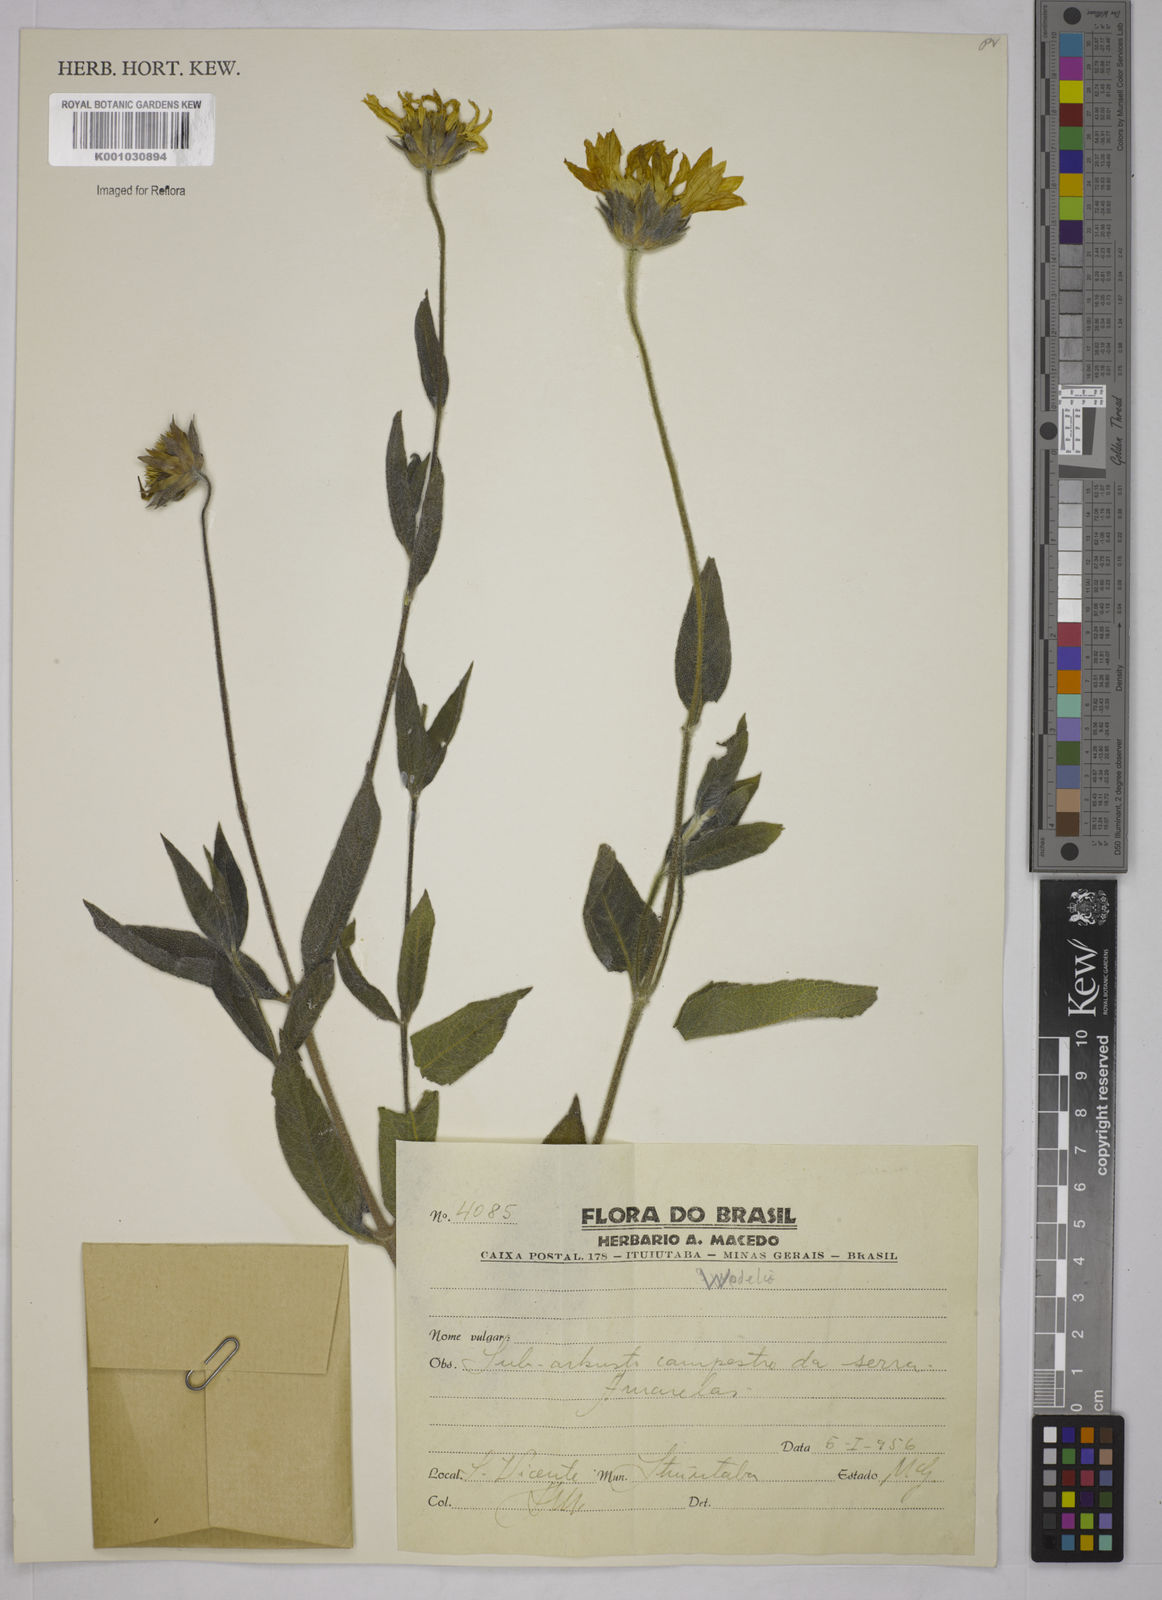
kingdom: Plantae
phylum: Tracheophyta
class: Magnoliopsida
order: Asterales
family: Asteraceae
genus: Wedelia
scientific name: Wedelia
